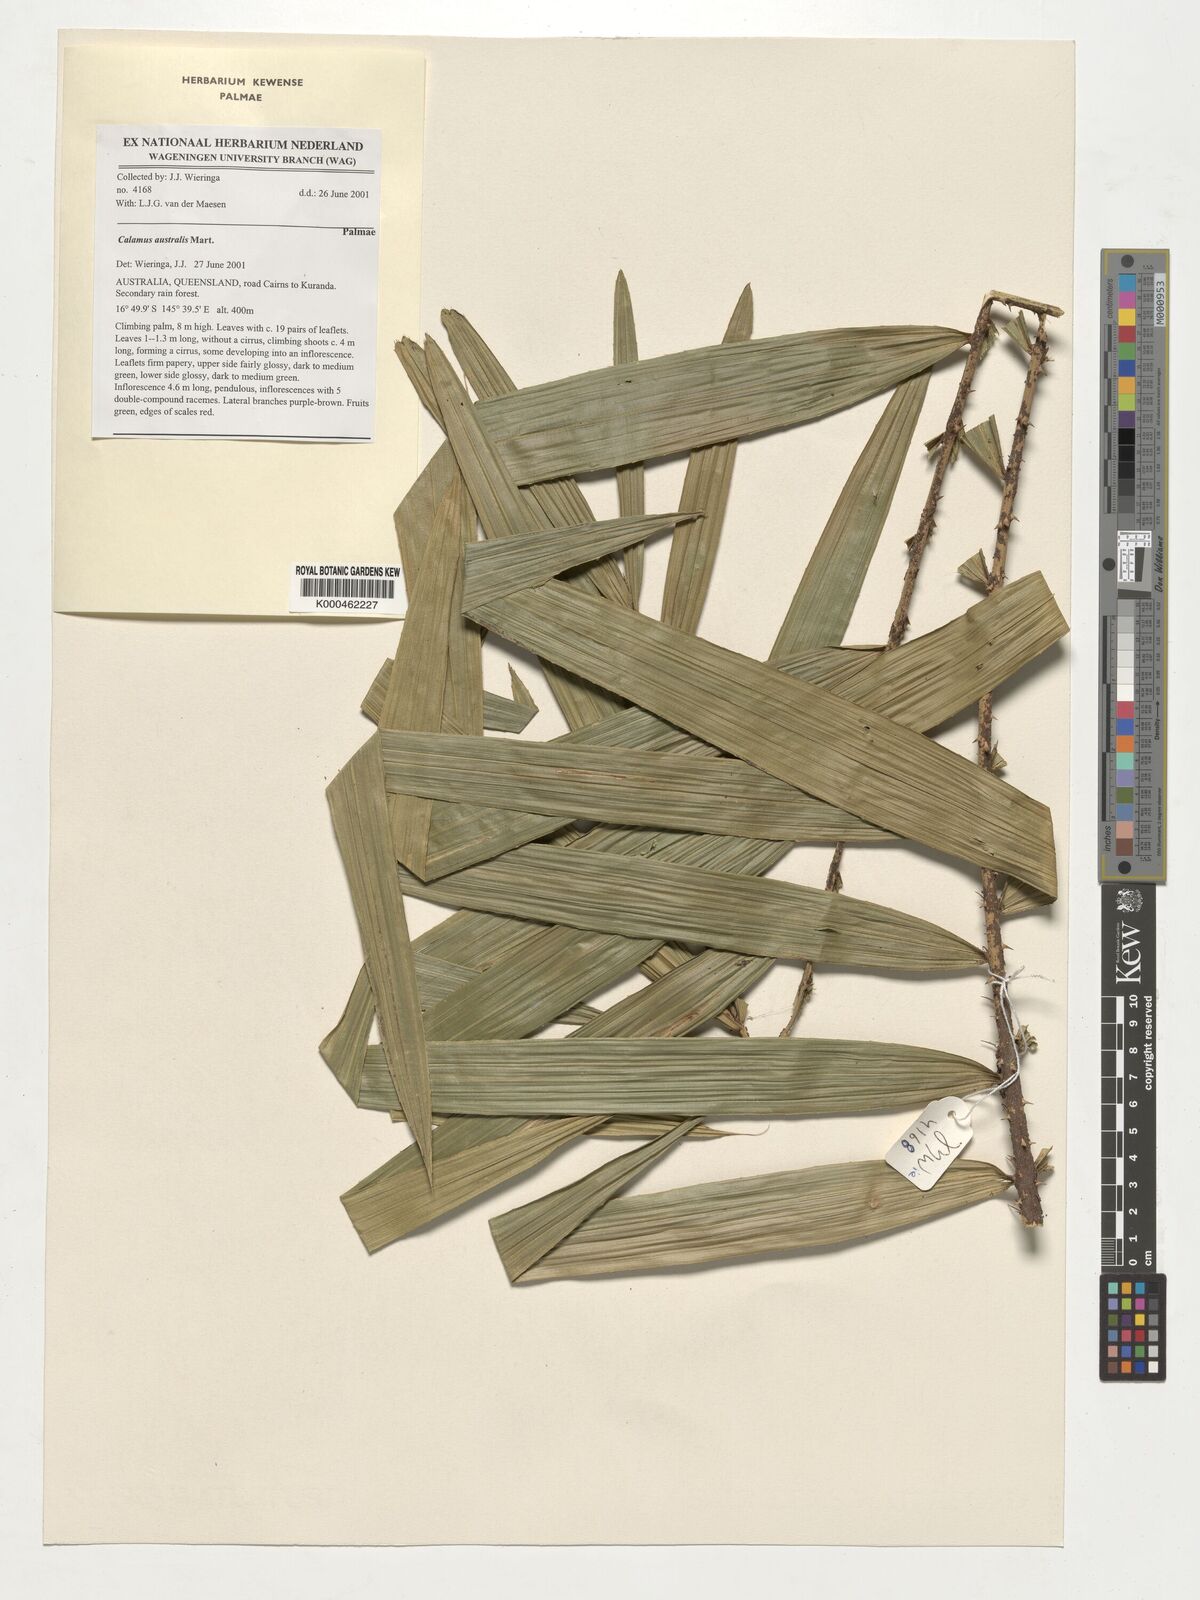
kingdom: Plantae
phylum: Tracheophyta
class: Liliopsida
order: Arecales
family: Arecaceae
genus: Calamus
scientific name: Calamus australis
